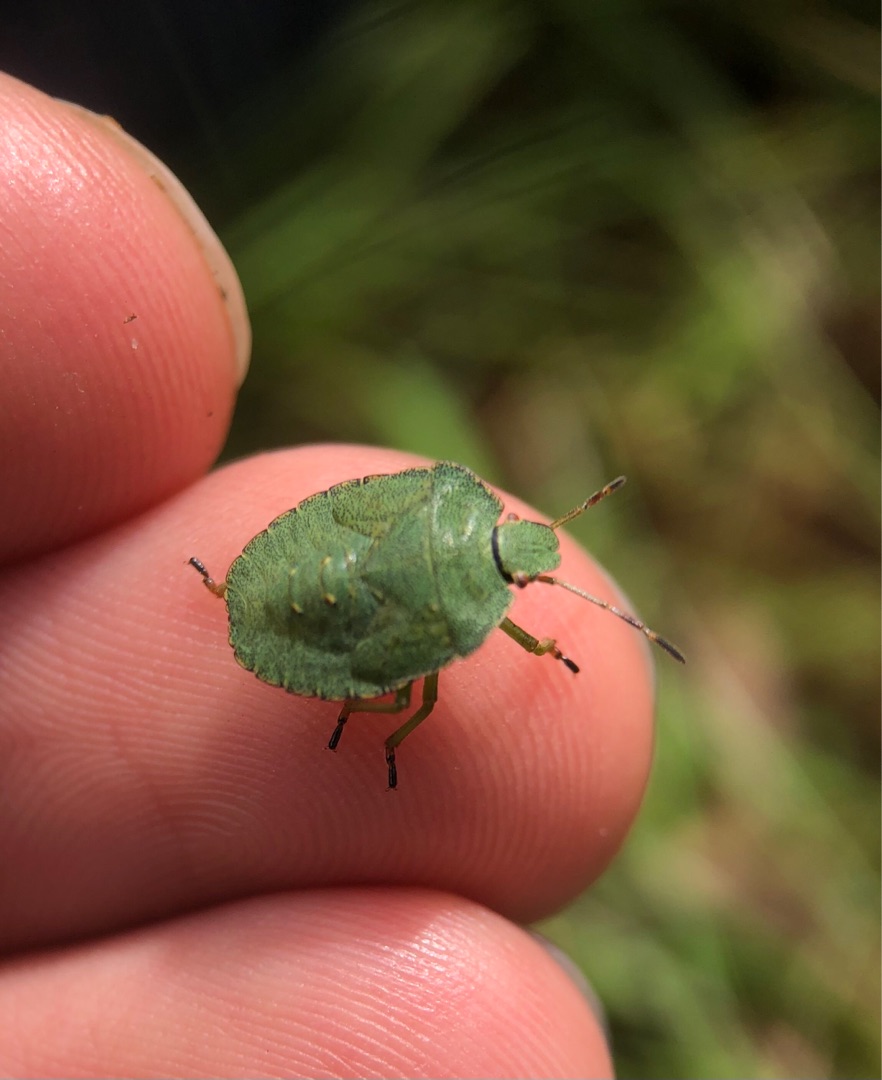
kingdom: Animalia
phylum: Arthropoda
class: Insecta
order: Hemiptera
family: Pentatomidae
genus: Palomena
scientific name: Palomena prasina
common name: Grøn bredtæge
